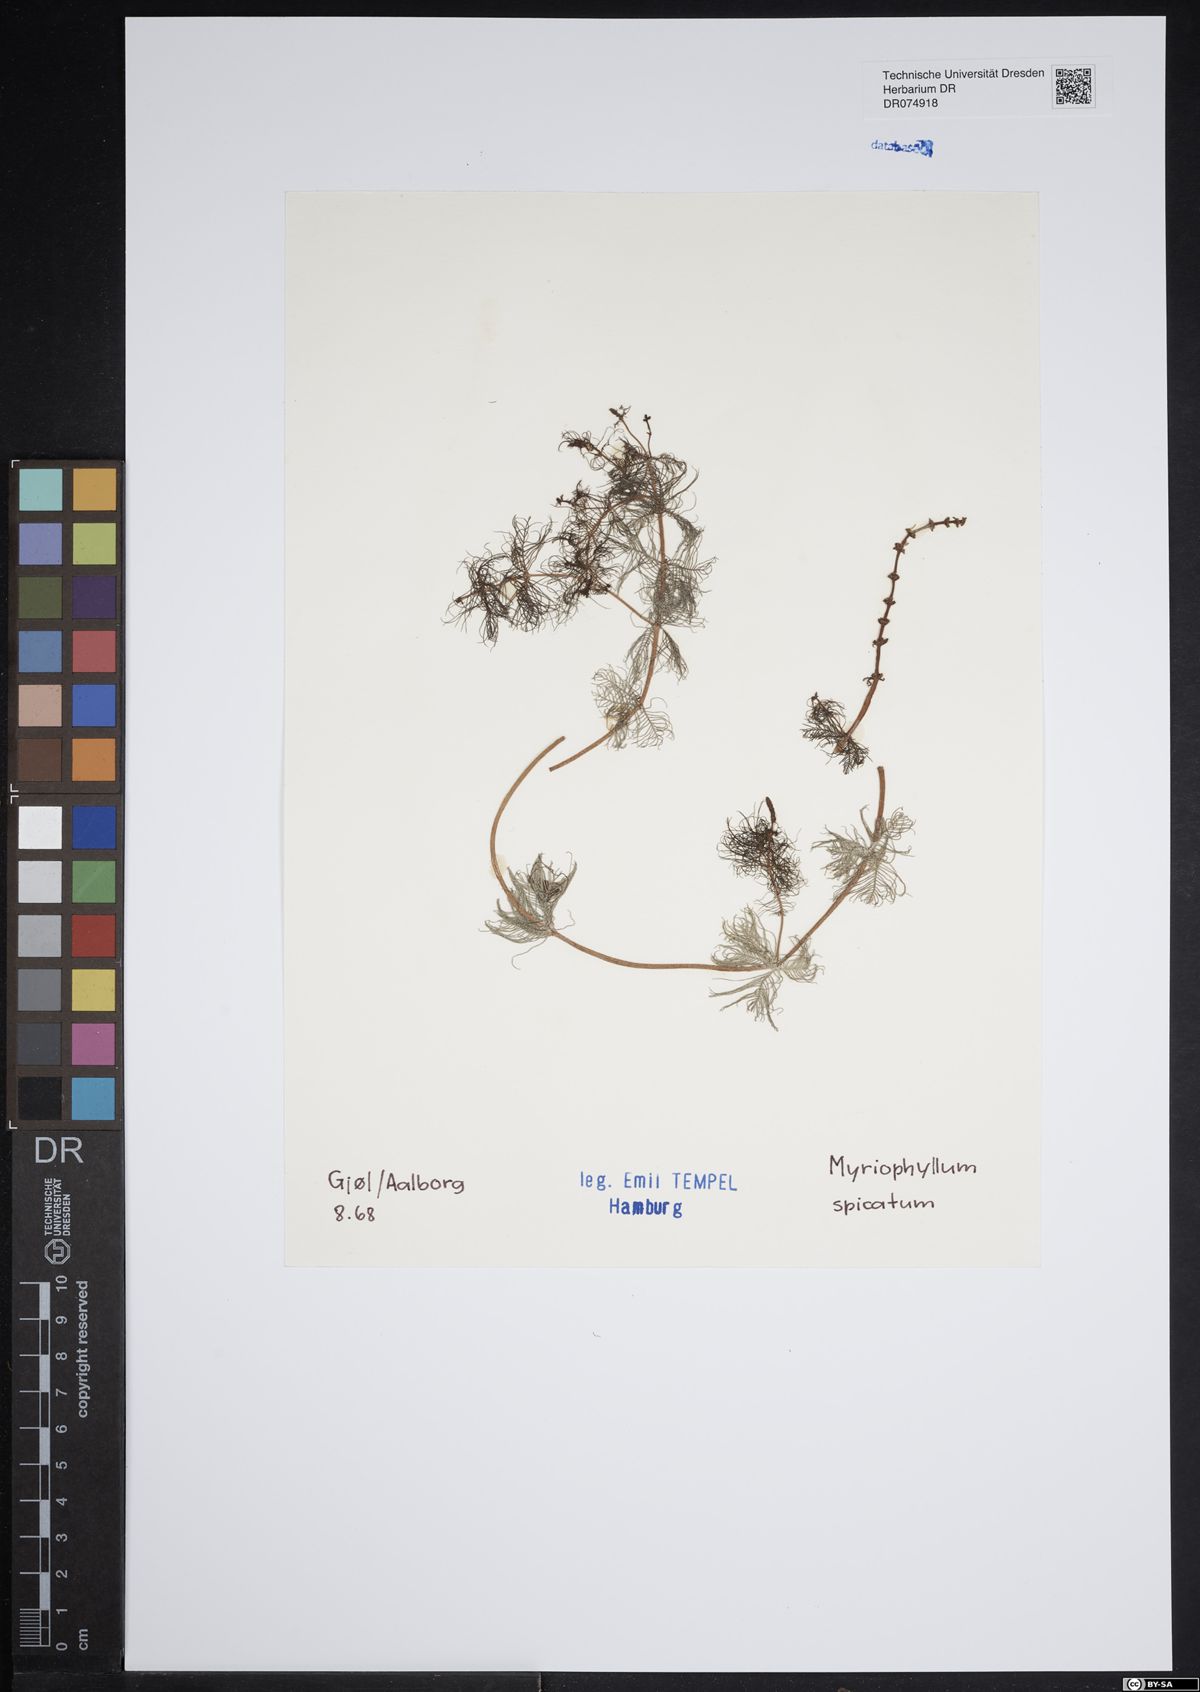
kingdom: Plantae
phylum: Tracheophyta
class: Magnoliopsida
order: Saxifragales
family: Haloragaceae
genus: Myriophyllum
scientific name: Myriophyllum spicatum
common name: Spiked water-milfoil
